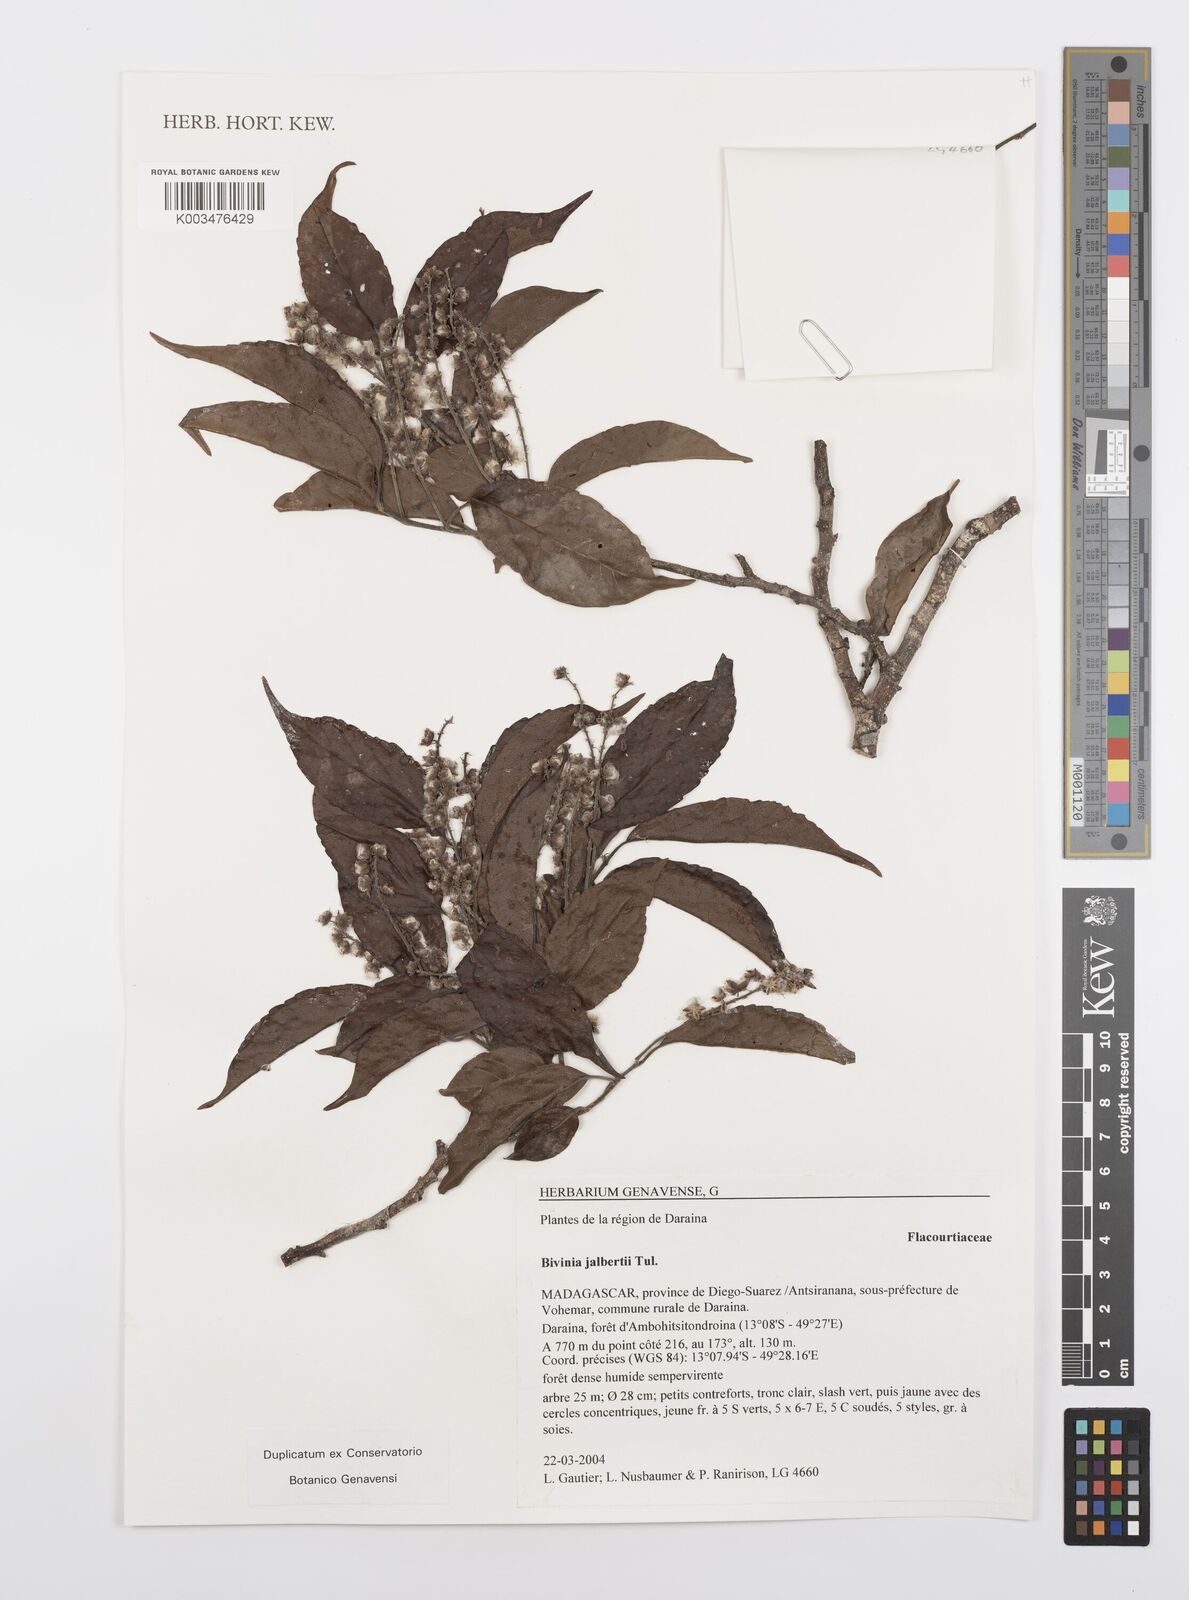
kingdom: Plantae
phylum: Tracheophyta
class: Magnoliopsida
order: Malpighiales
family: Salicaceae
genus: Bivinia
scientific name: Bivinia jalbertii
